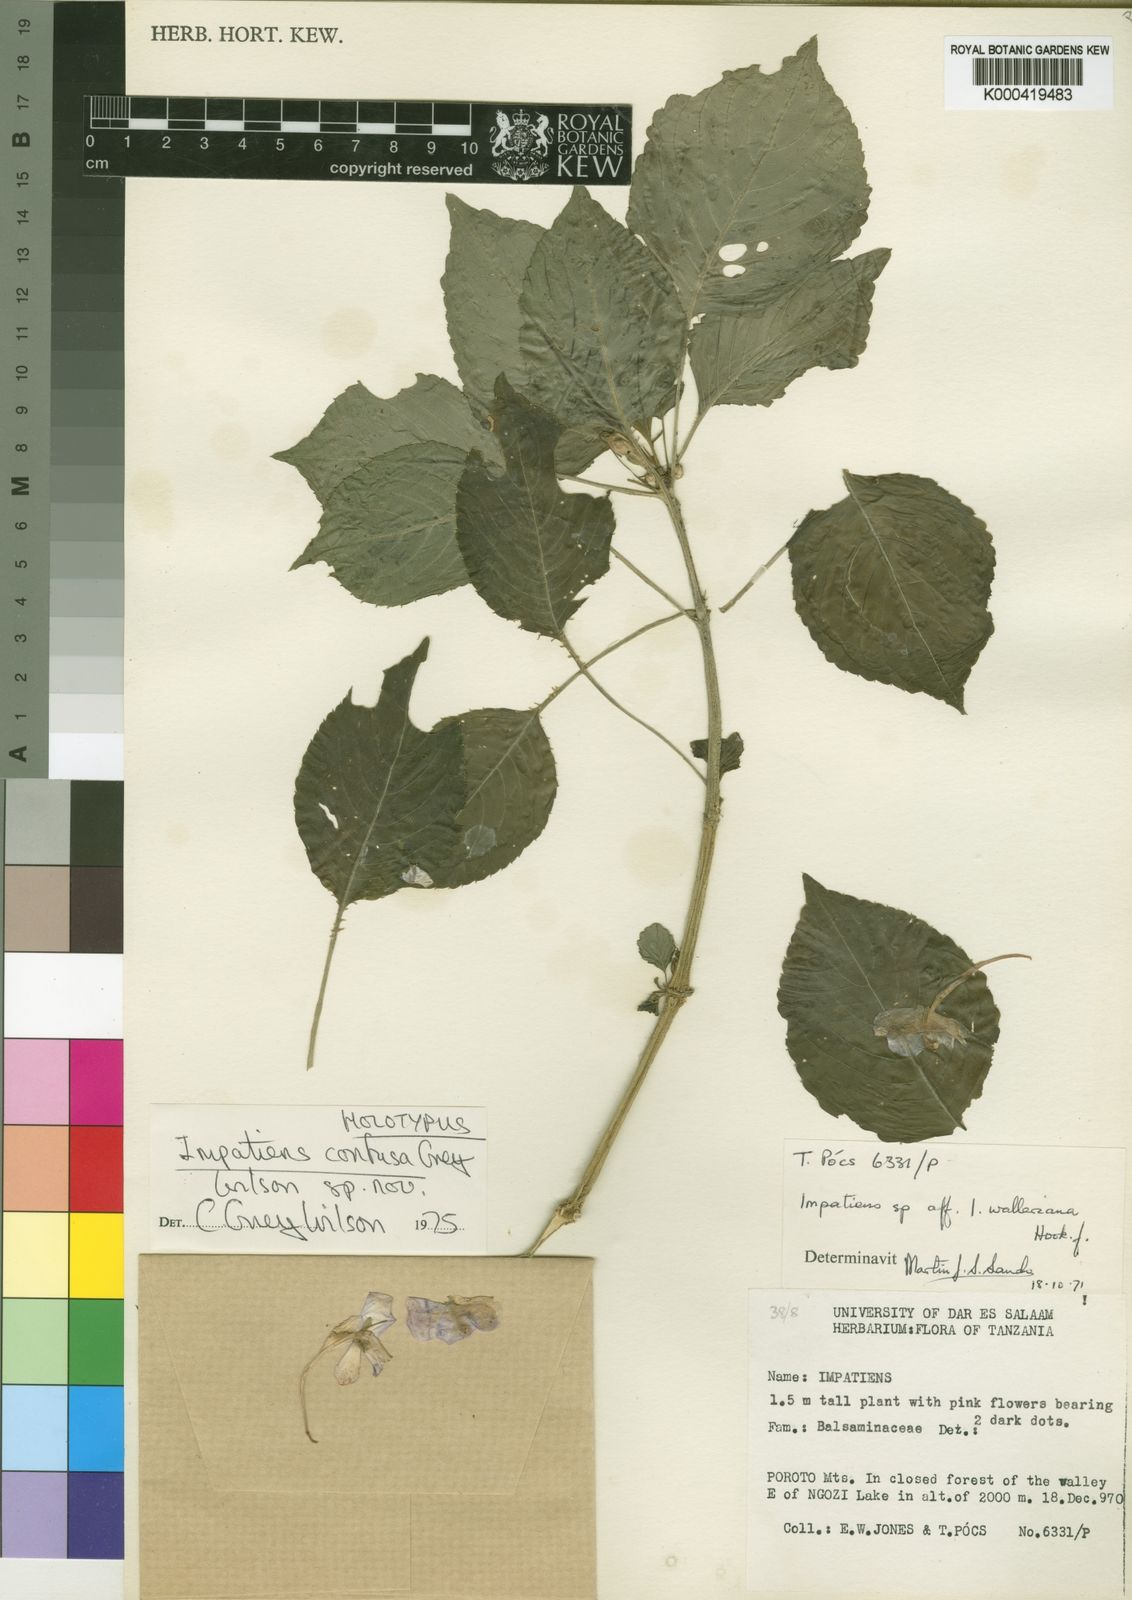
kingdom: Plantae
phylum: Tracheophyta
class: Magnoliopsida
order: Ericales
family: Balsaminaceae
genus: Impatiens
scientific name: Impatiens confusa
